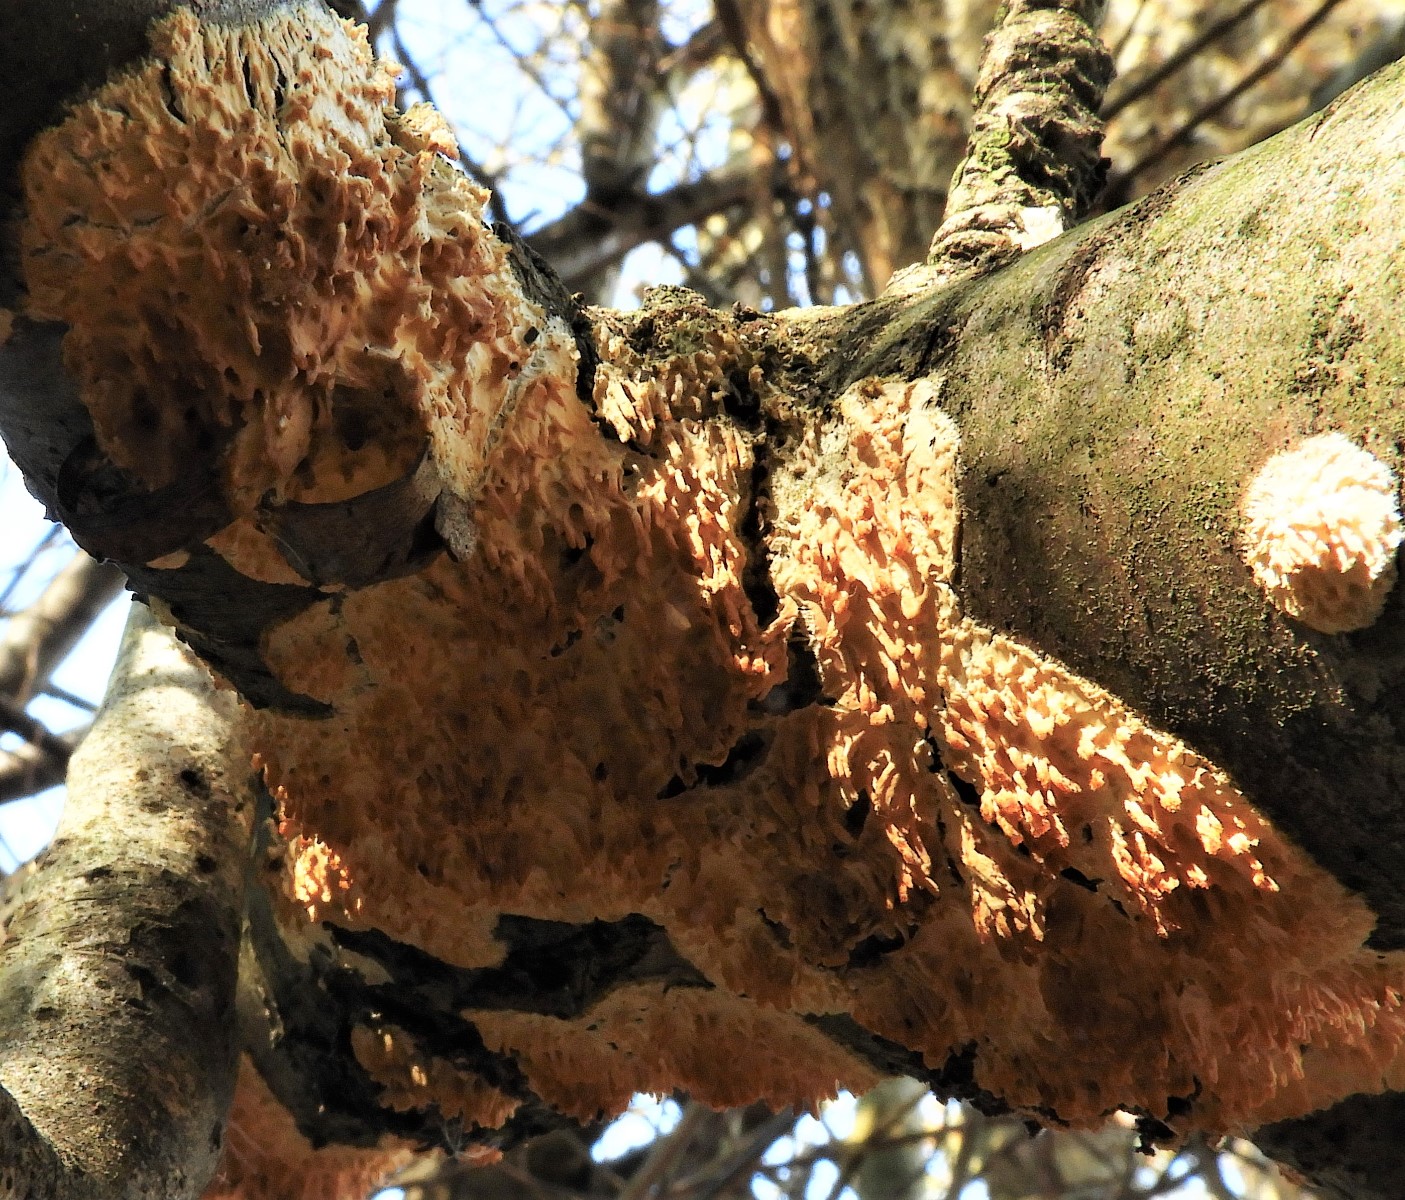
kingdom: Fungi
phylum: Basidiomycota
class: Agaricomycetes
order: Hymenochaetales
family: Schizoporaceae
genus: Xylodon
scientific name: Xylodon radula
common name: grovtandet kalkskind
